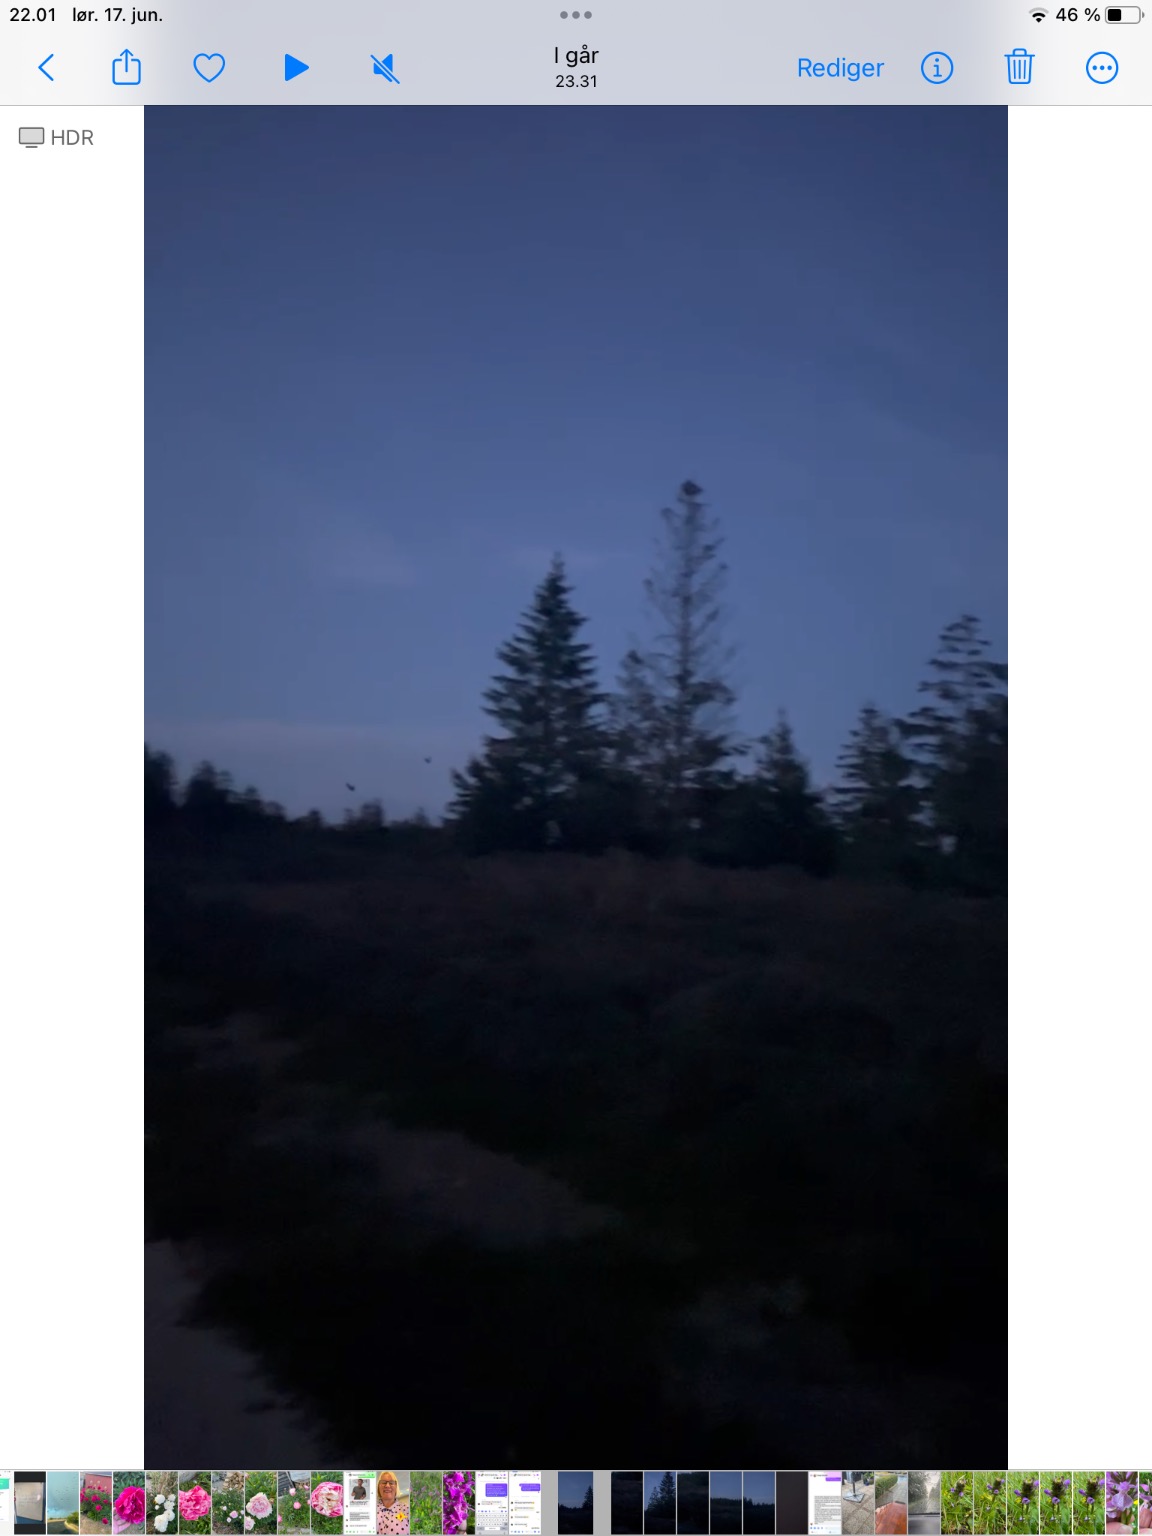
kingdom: Animalia
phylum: Chordata
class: Aves
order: Caprimulgiformes
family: Caprimulgidae
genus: Caprimulgus
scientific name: Caprimulgus europaeus
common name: Natravn
